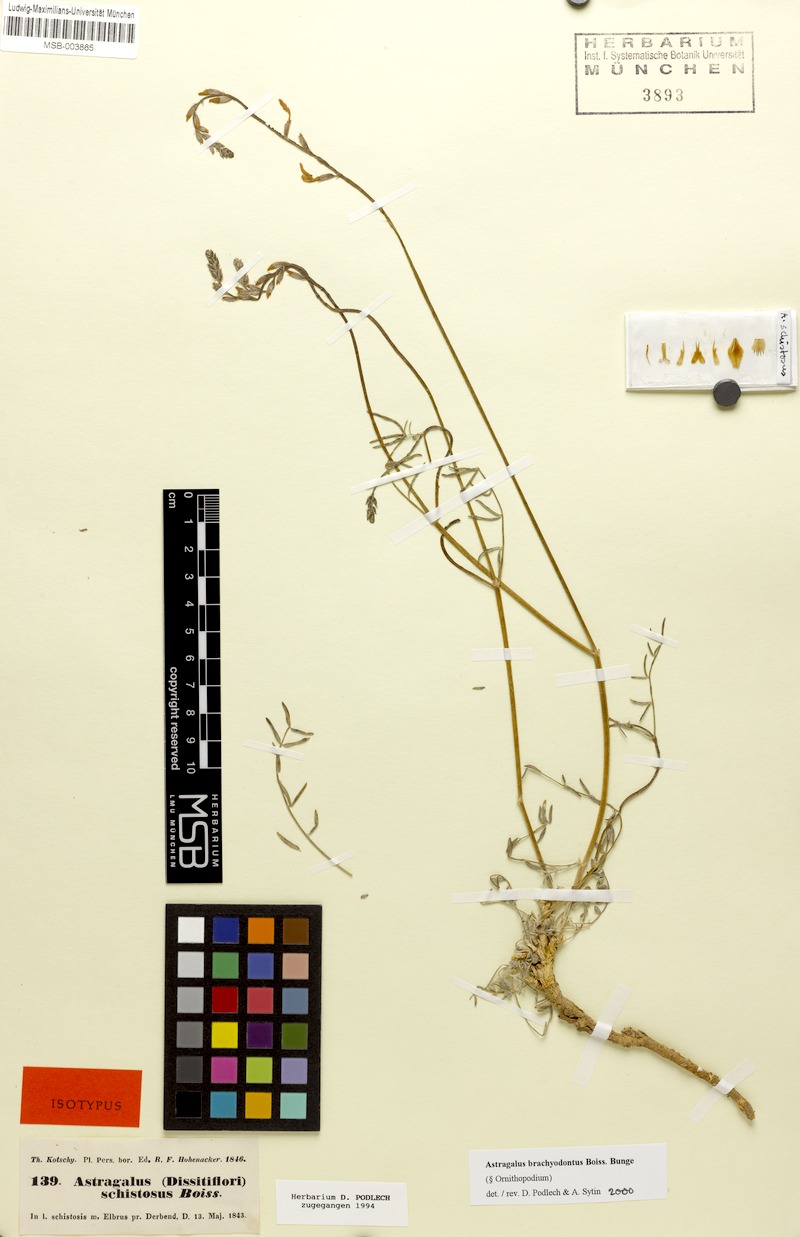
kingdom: Plantae
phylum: Tracheophyta
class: Magnoliopsida
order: Fabales
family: Fabaceae
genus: Astragalus
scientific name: Astragalus brachyodontus
